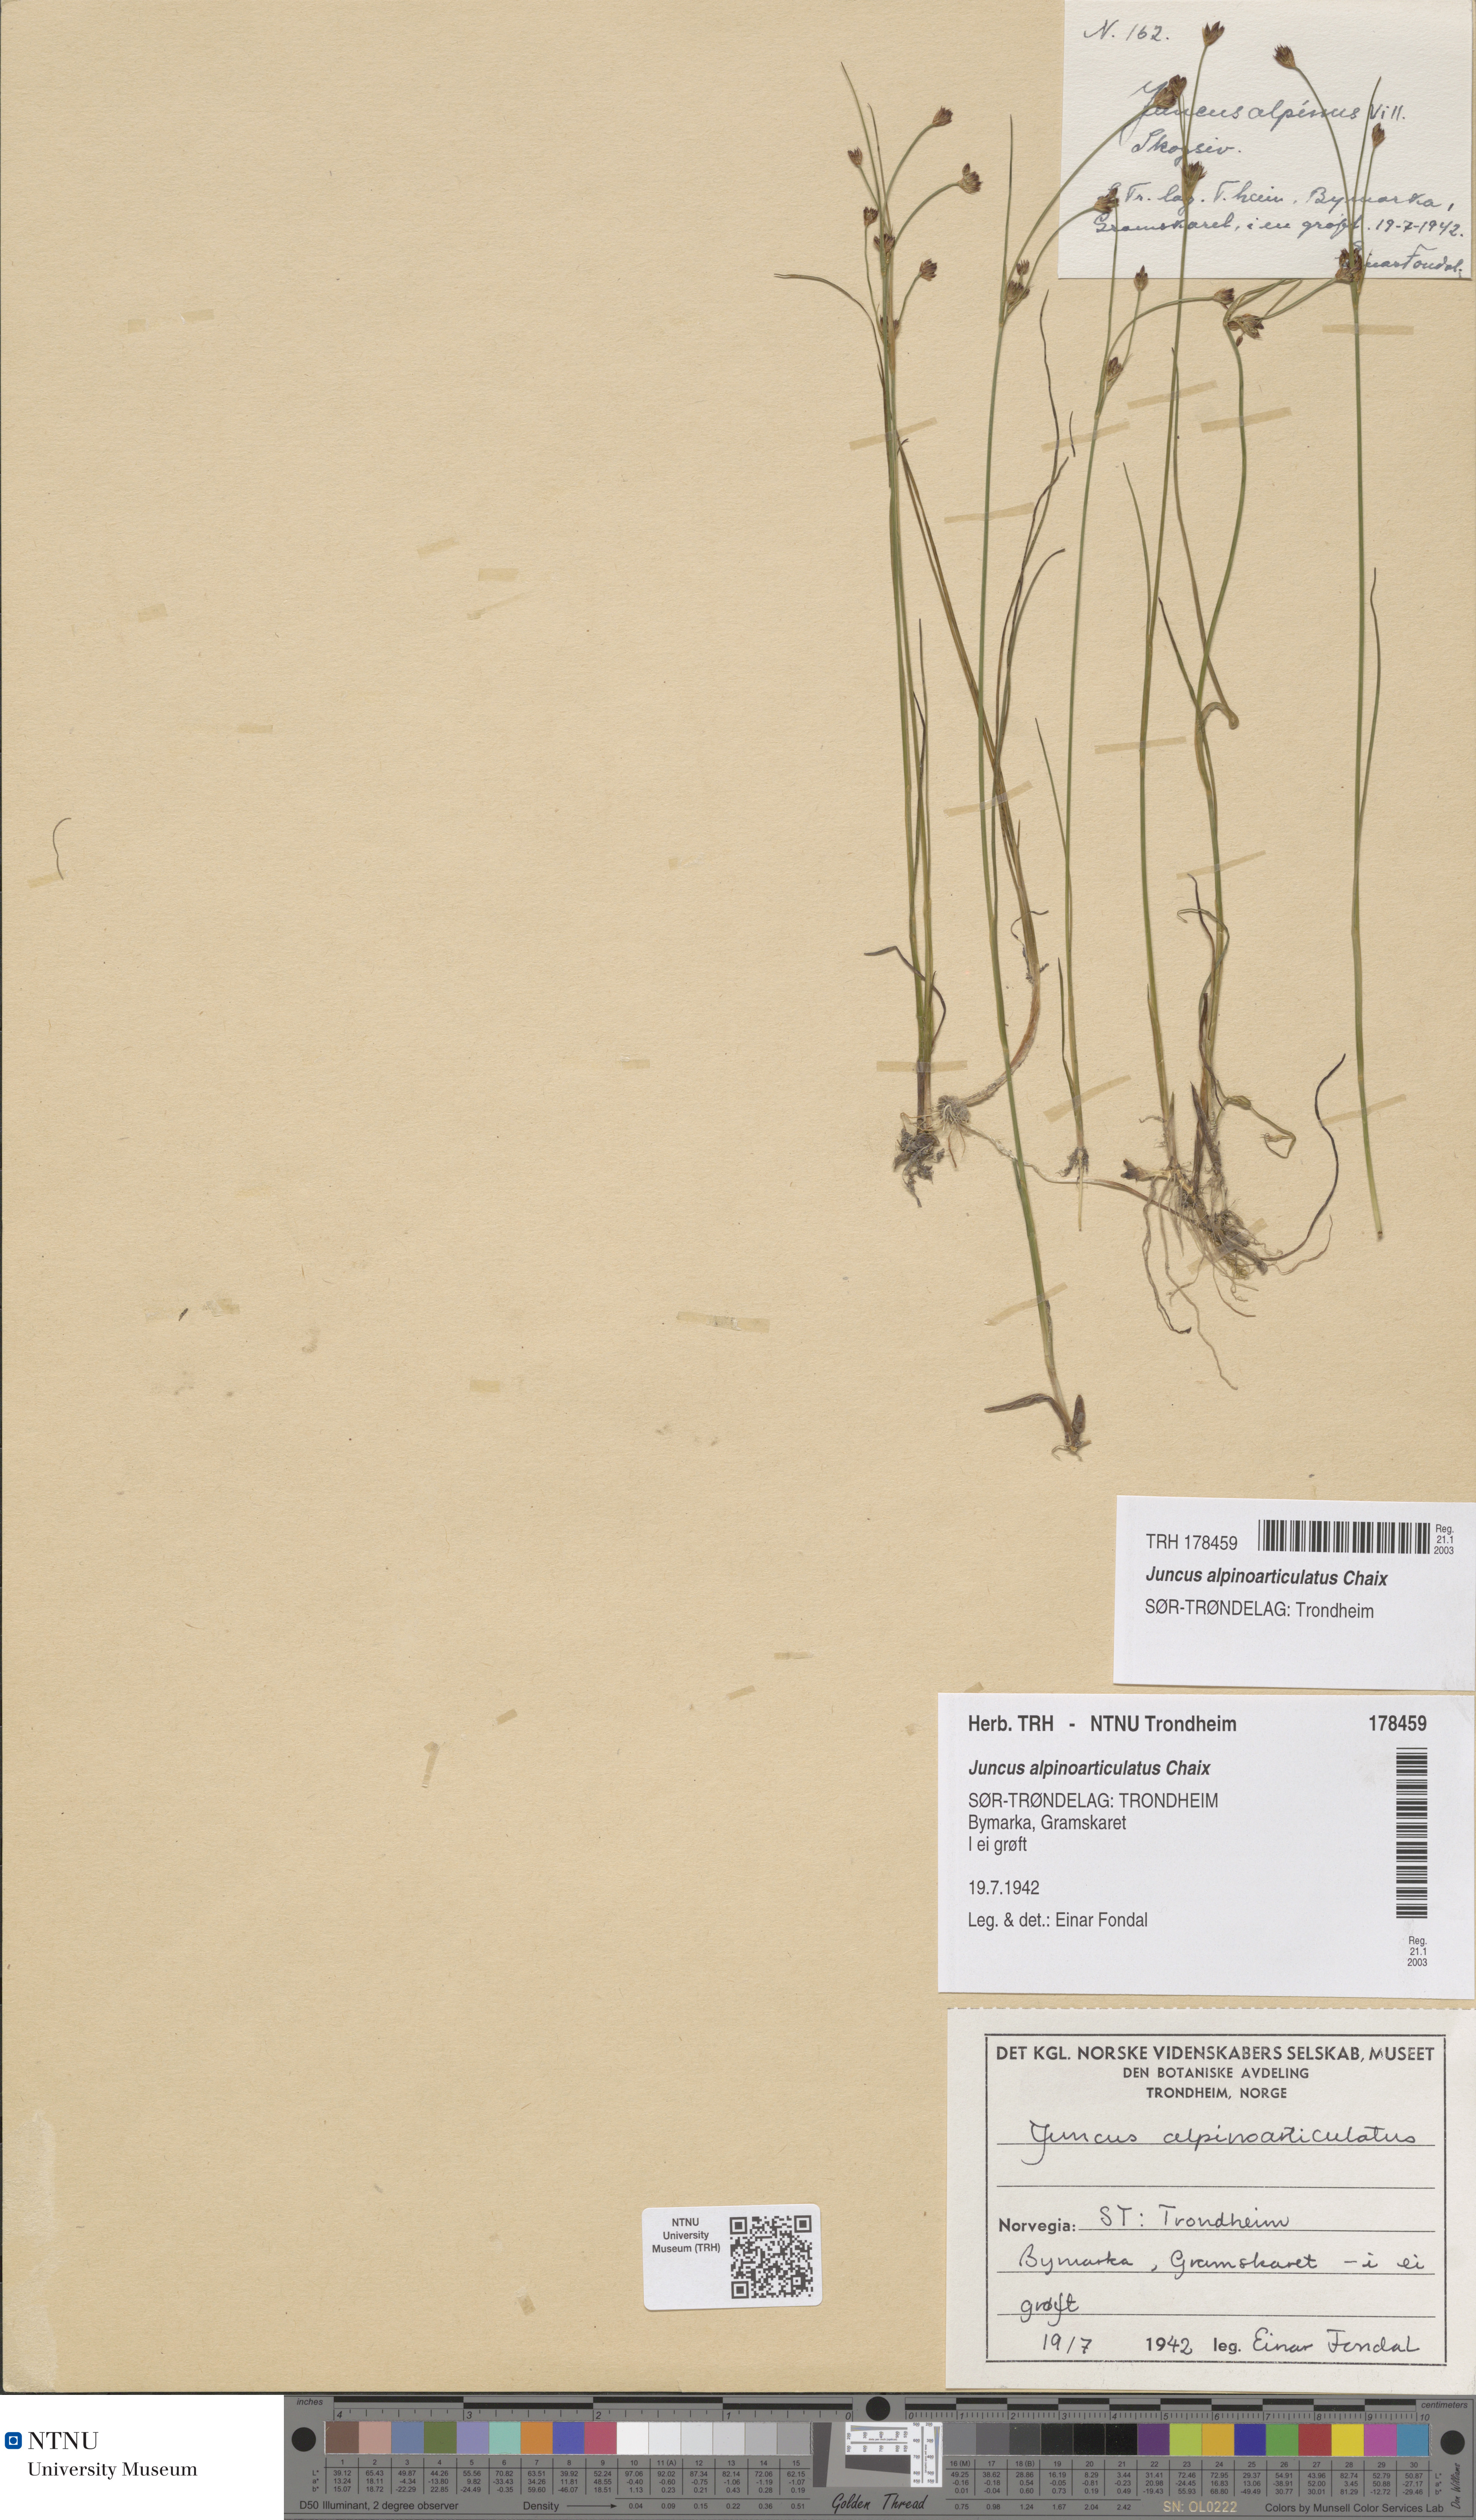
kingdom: Plantae
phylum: Tracheophyta
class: Liliopsida
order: Poales
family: Juncaceae
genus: Juncus
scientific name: Juncus alpinoarticulatus
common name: Alpine rush
